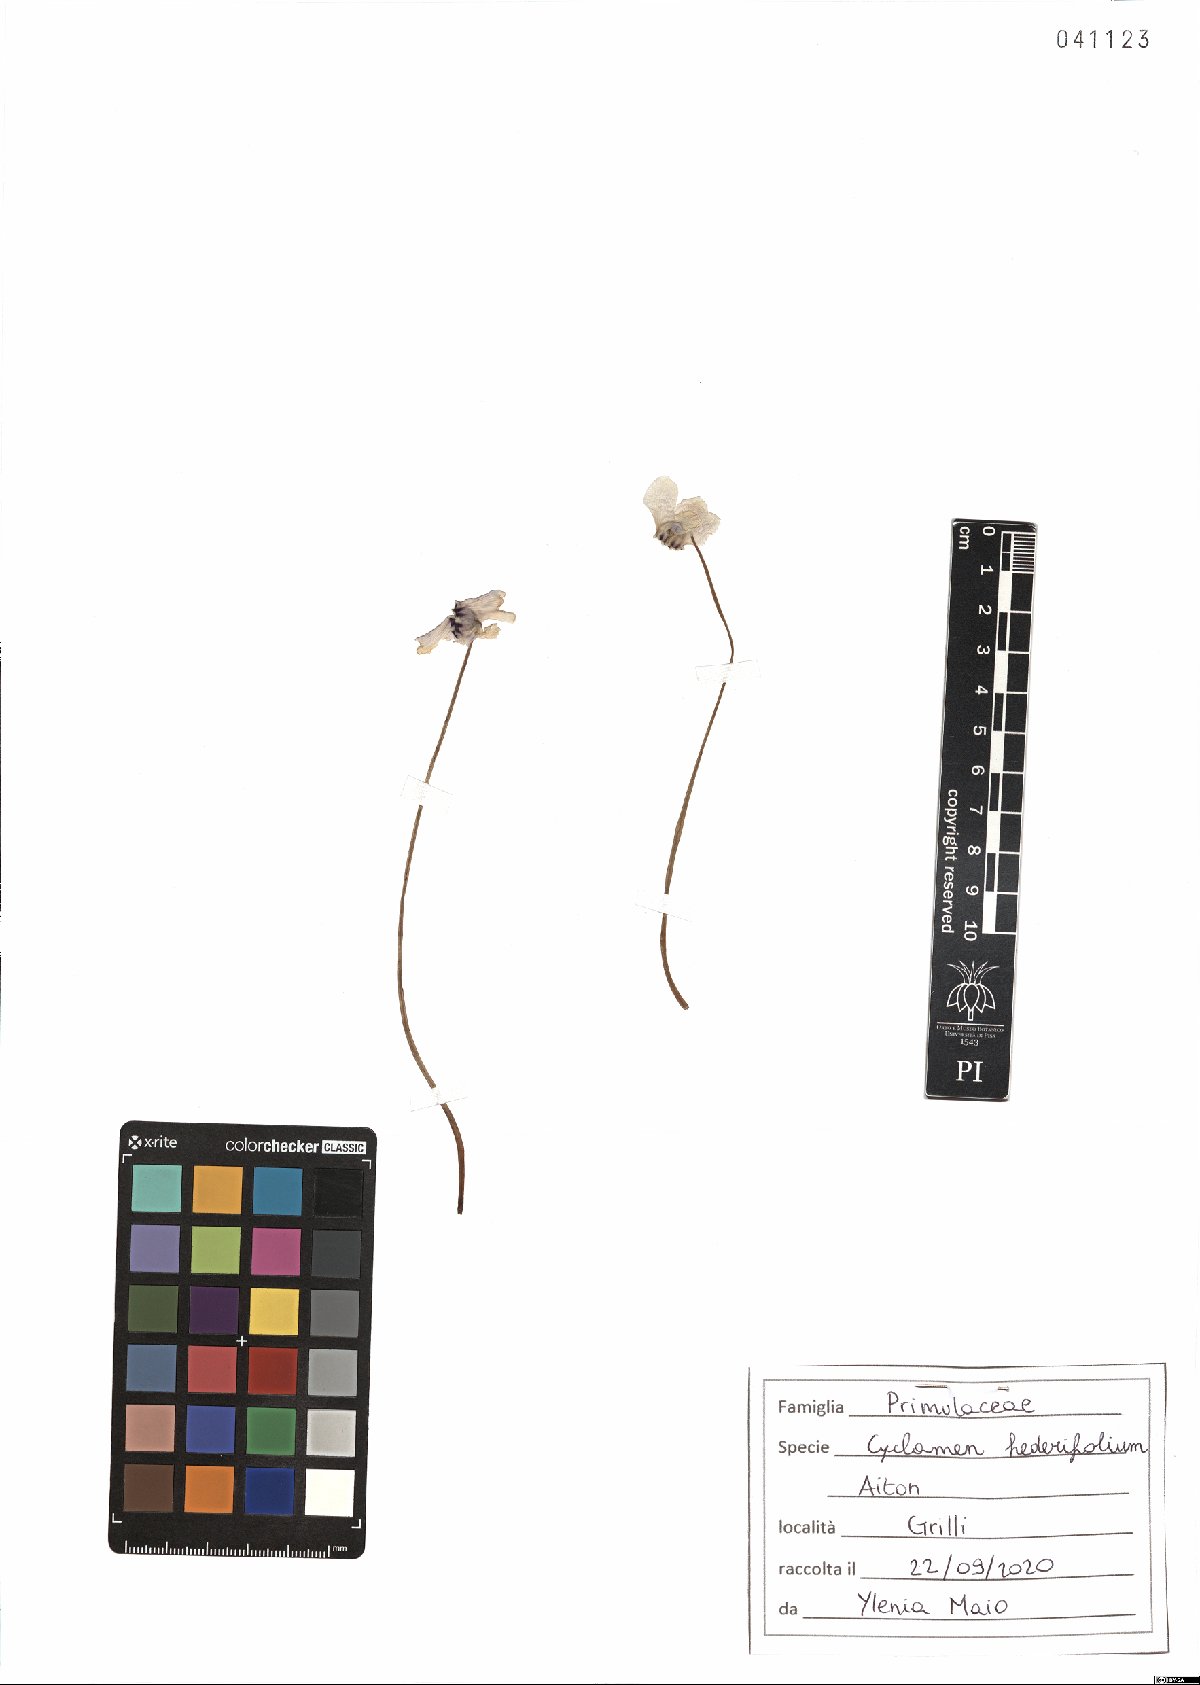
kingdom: Plantae
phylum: Tracheophyta
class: Magnoliopsida
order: Ericales
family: Primulaceae
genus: Cyclamen
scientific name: Cyclamen hederifolium
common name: Sowbread
